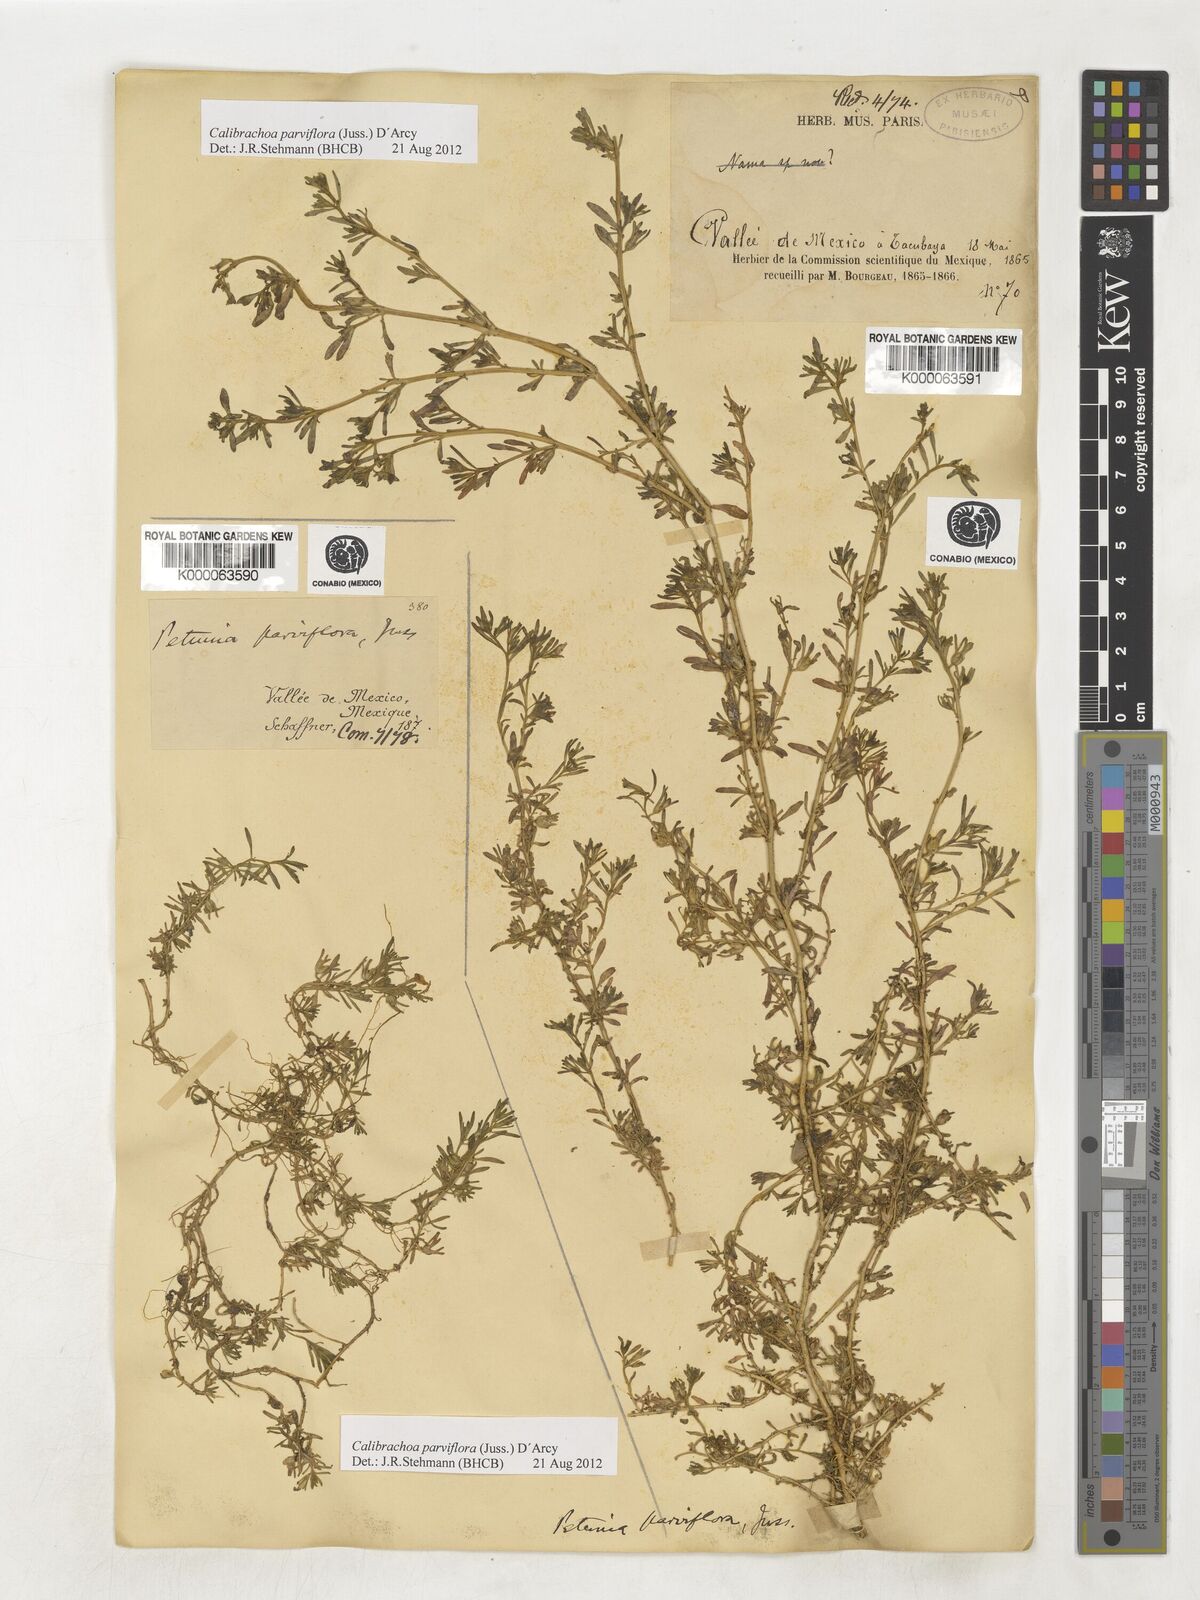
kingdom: Plantae
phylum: Tracheophyta
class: Magnoliopsida
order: Solanales
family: Solanaceae
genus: Calibrachoa
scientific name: Calibrachoa parviflora
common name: Seaside petunia
